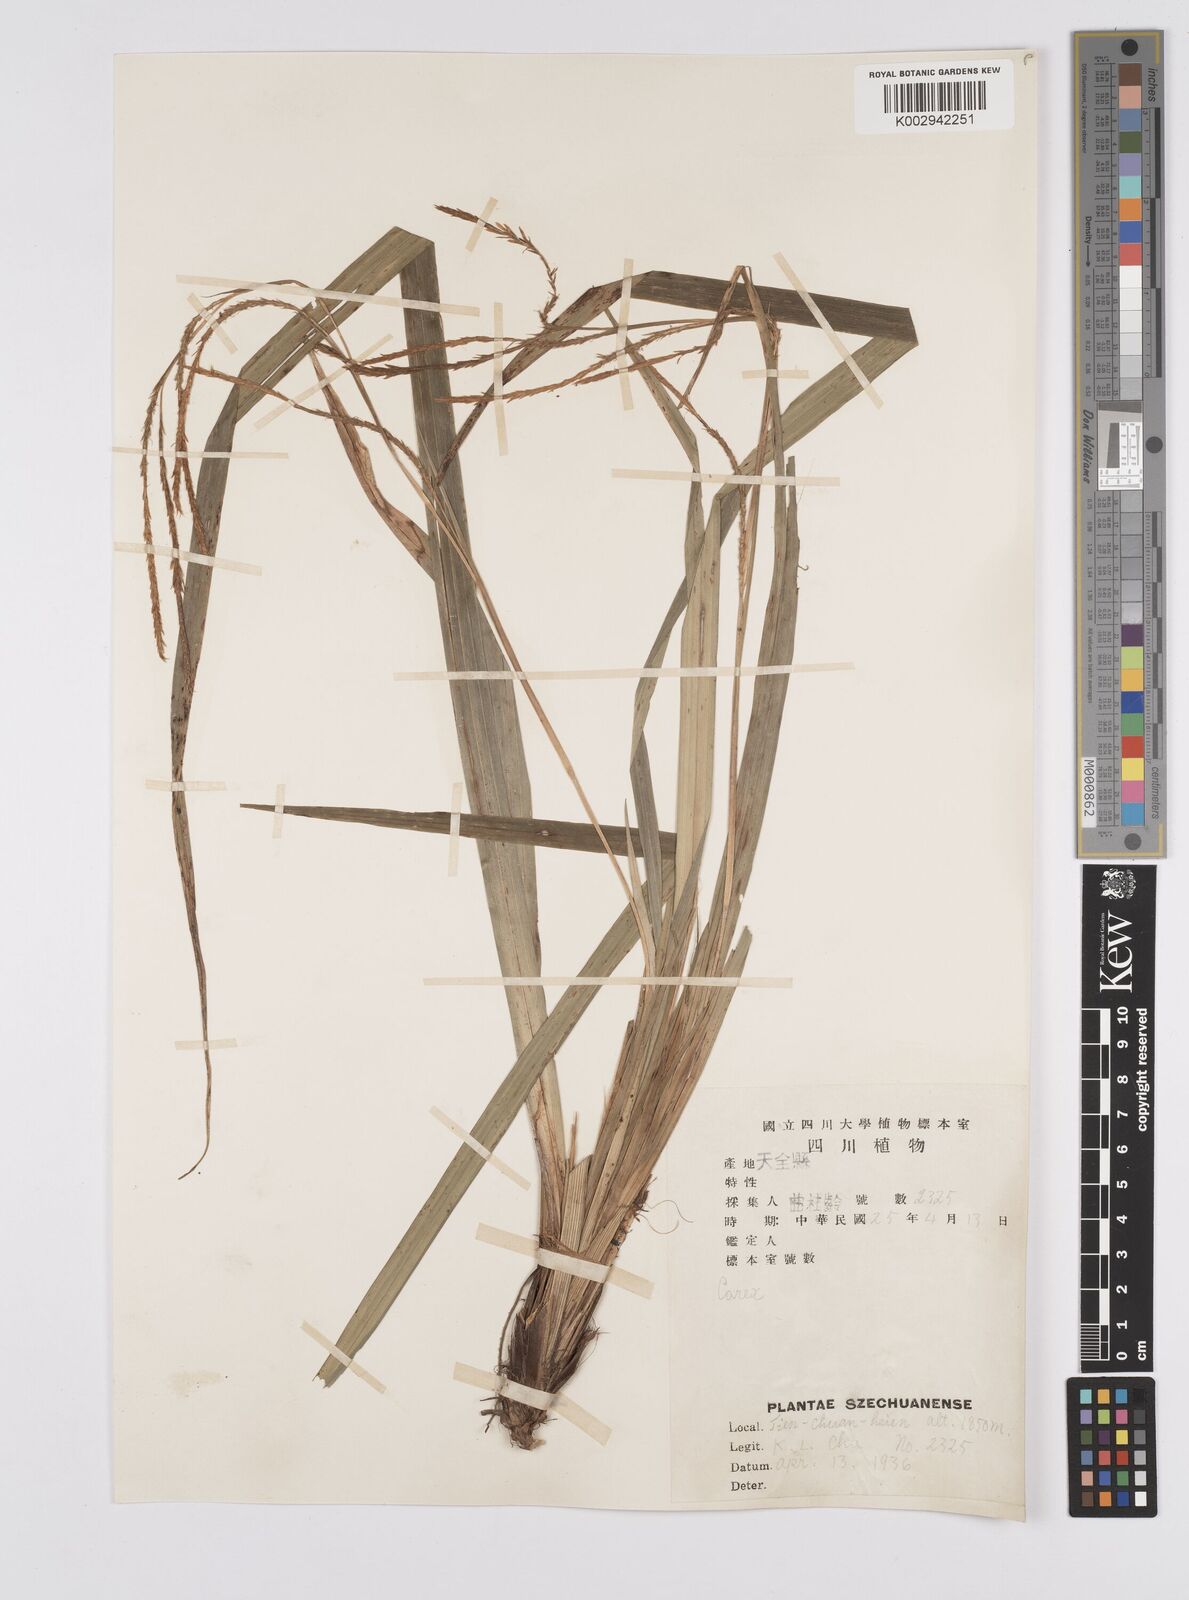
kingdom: Plantae
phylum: Tracheophyta
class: Liliopsida
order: Poales
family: Cyperaceae
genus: Carex
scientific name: Carex thibetica
